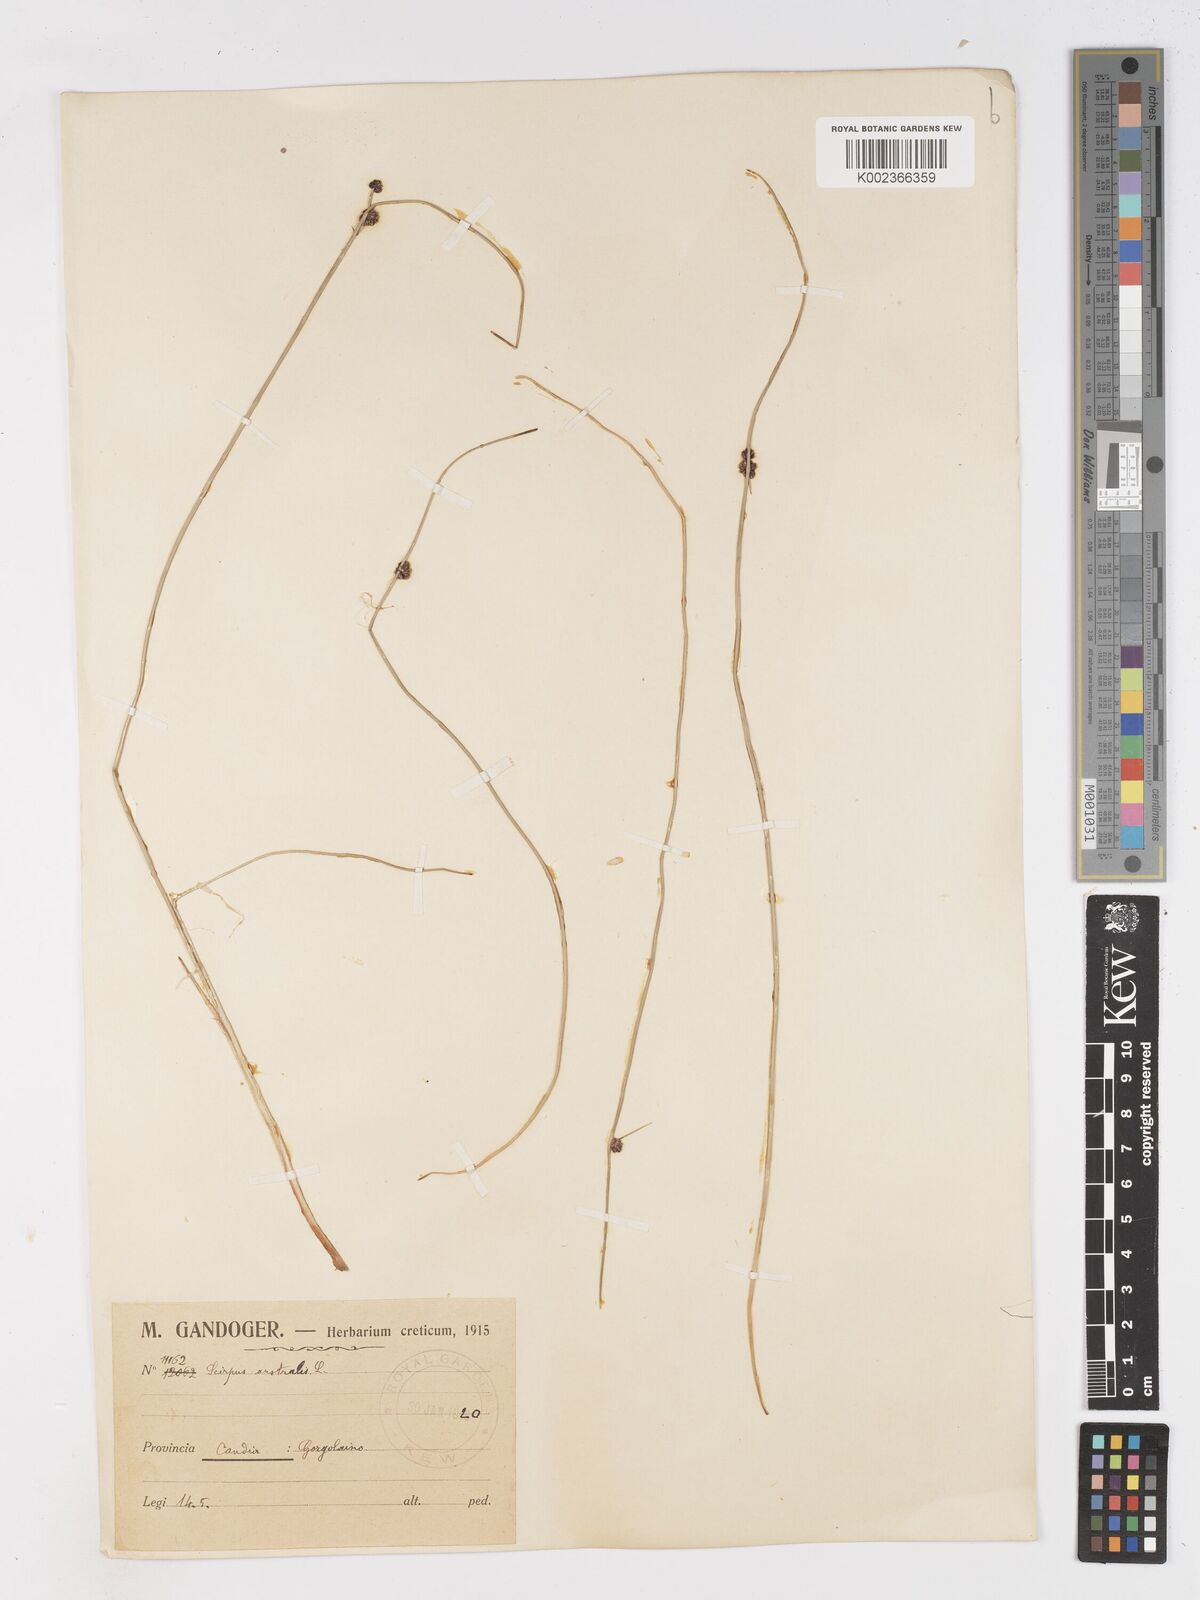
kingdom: Plantae
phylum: Tracheophyta
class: Liliopsida
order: Poales
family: Cyperaceae
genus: Scirpoides
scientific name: Scirpoides holoschoenus
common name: Round-headed club-rush
